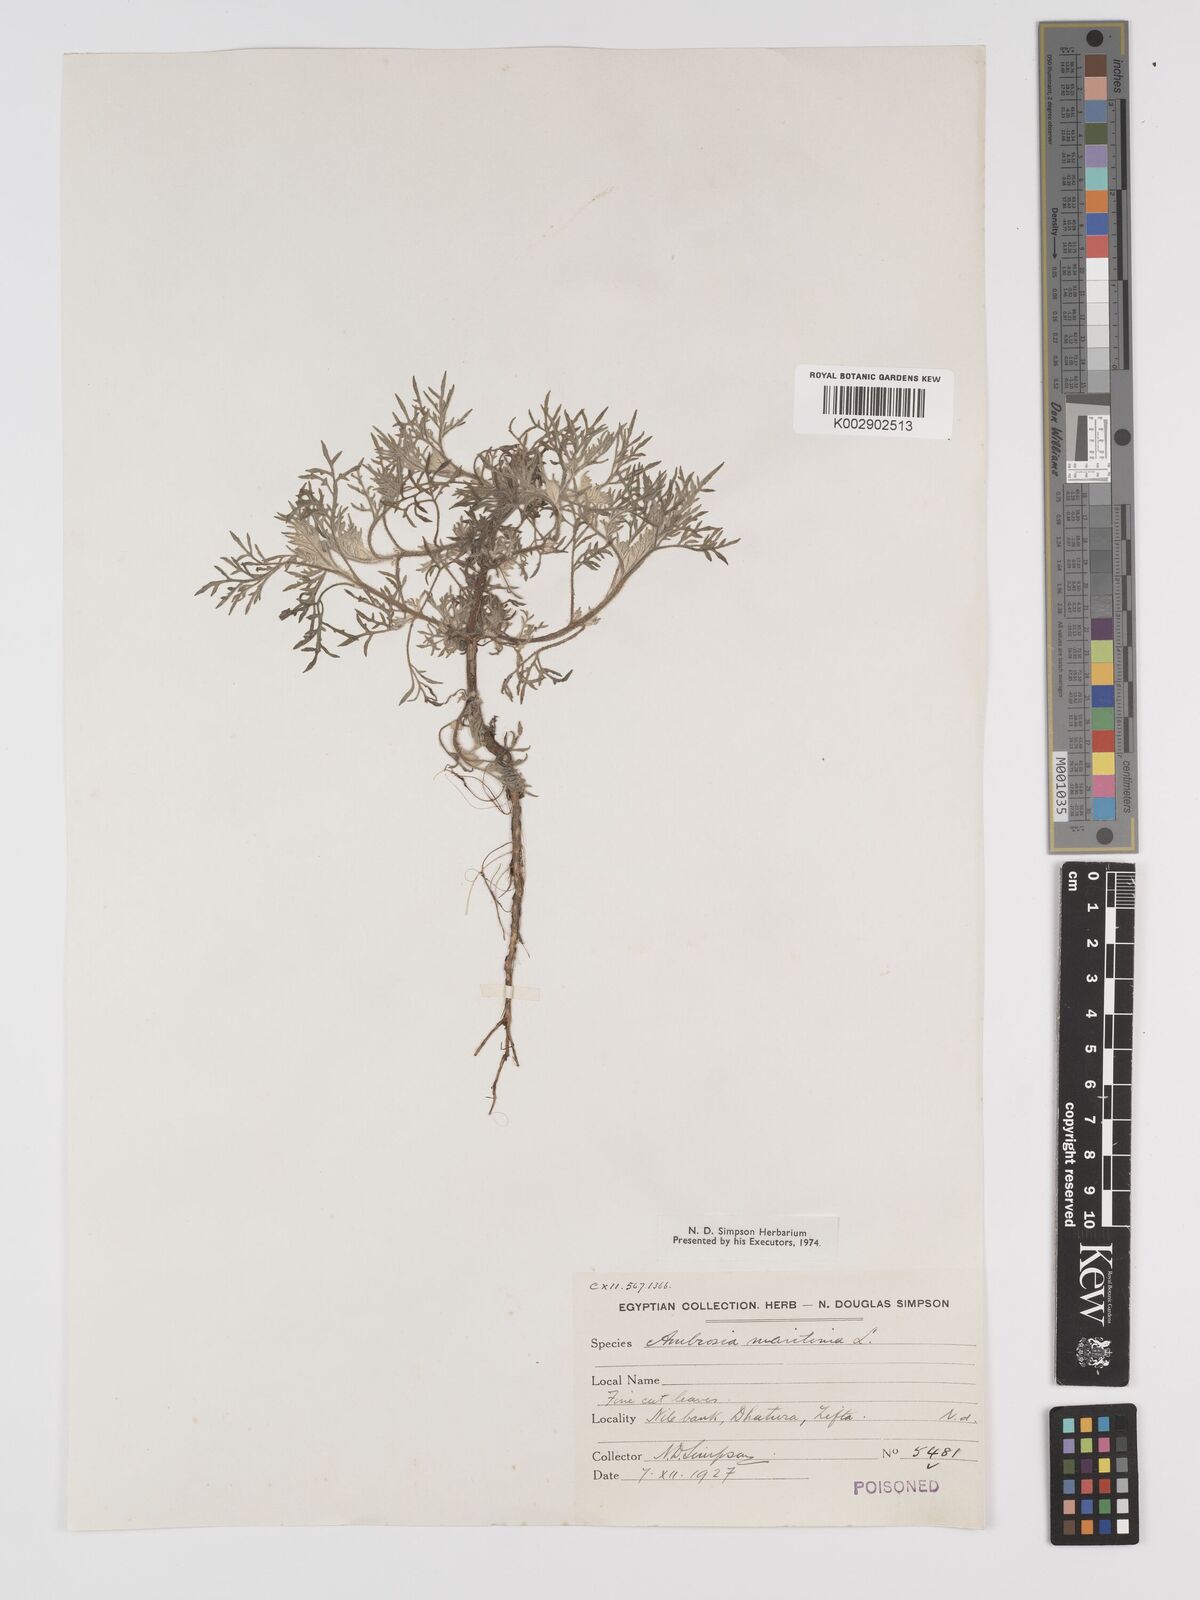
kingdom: Plantae
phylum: Tracheophyta
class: Magnoliopsida
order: Asterales
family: Asteraceae
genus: Ambrosia
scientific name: Ambrosia maritima
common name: Sea ambrosia
